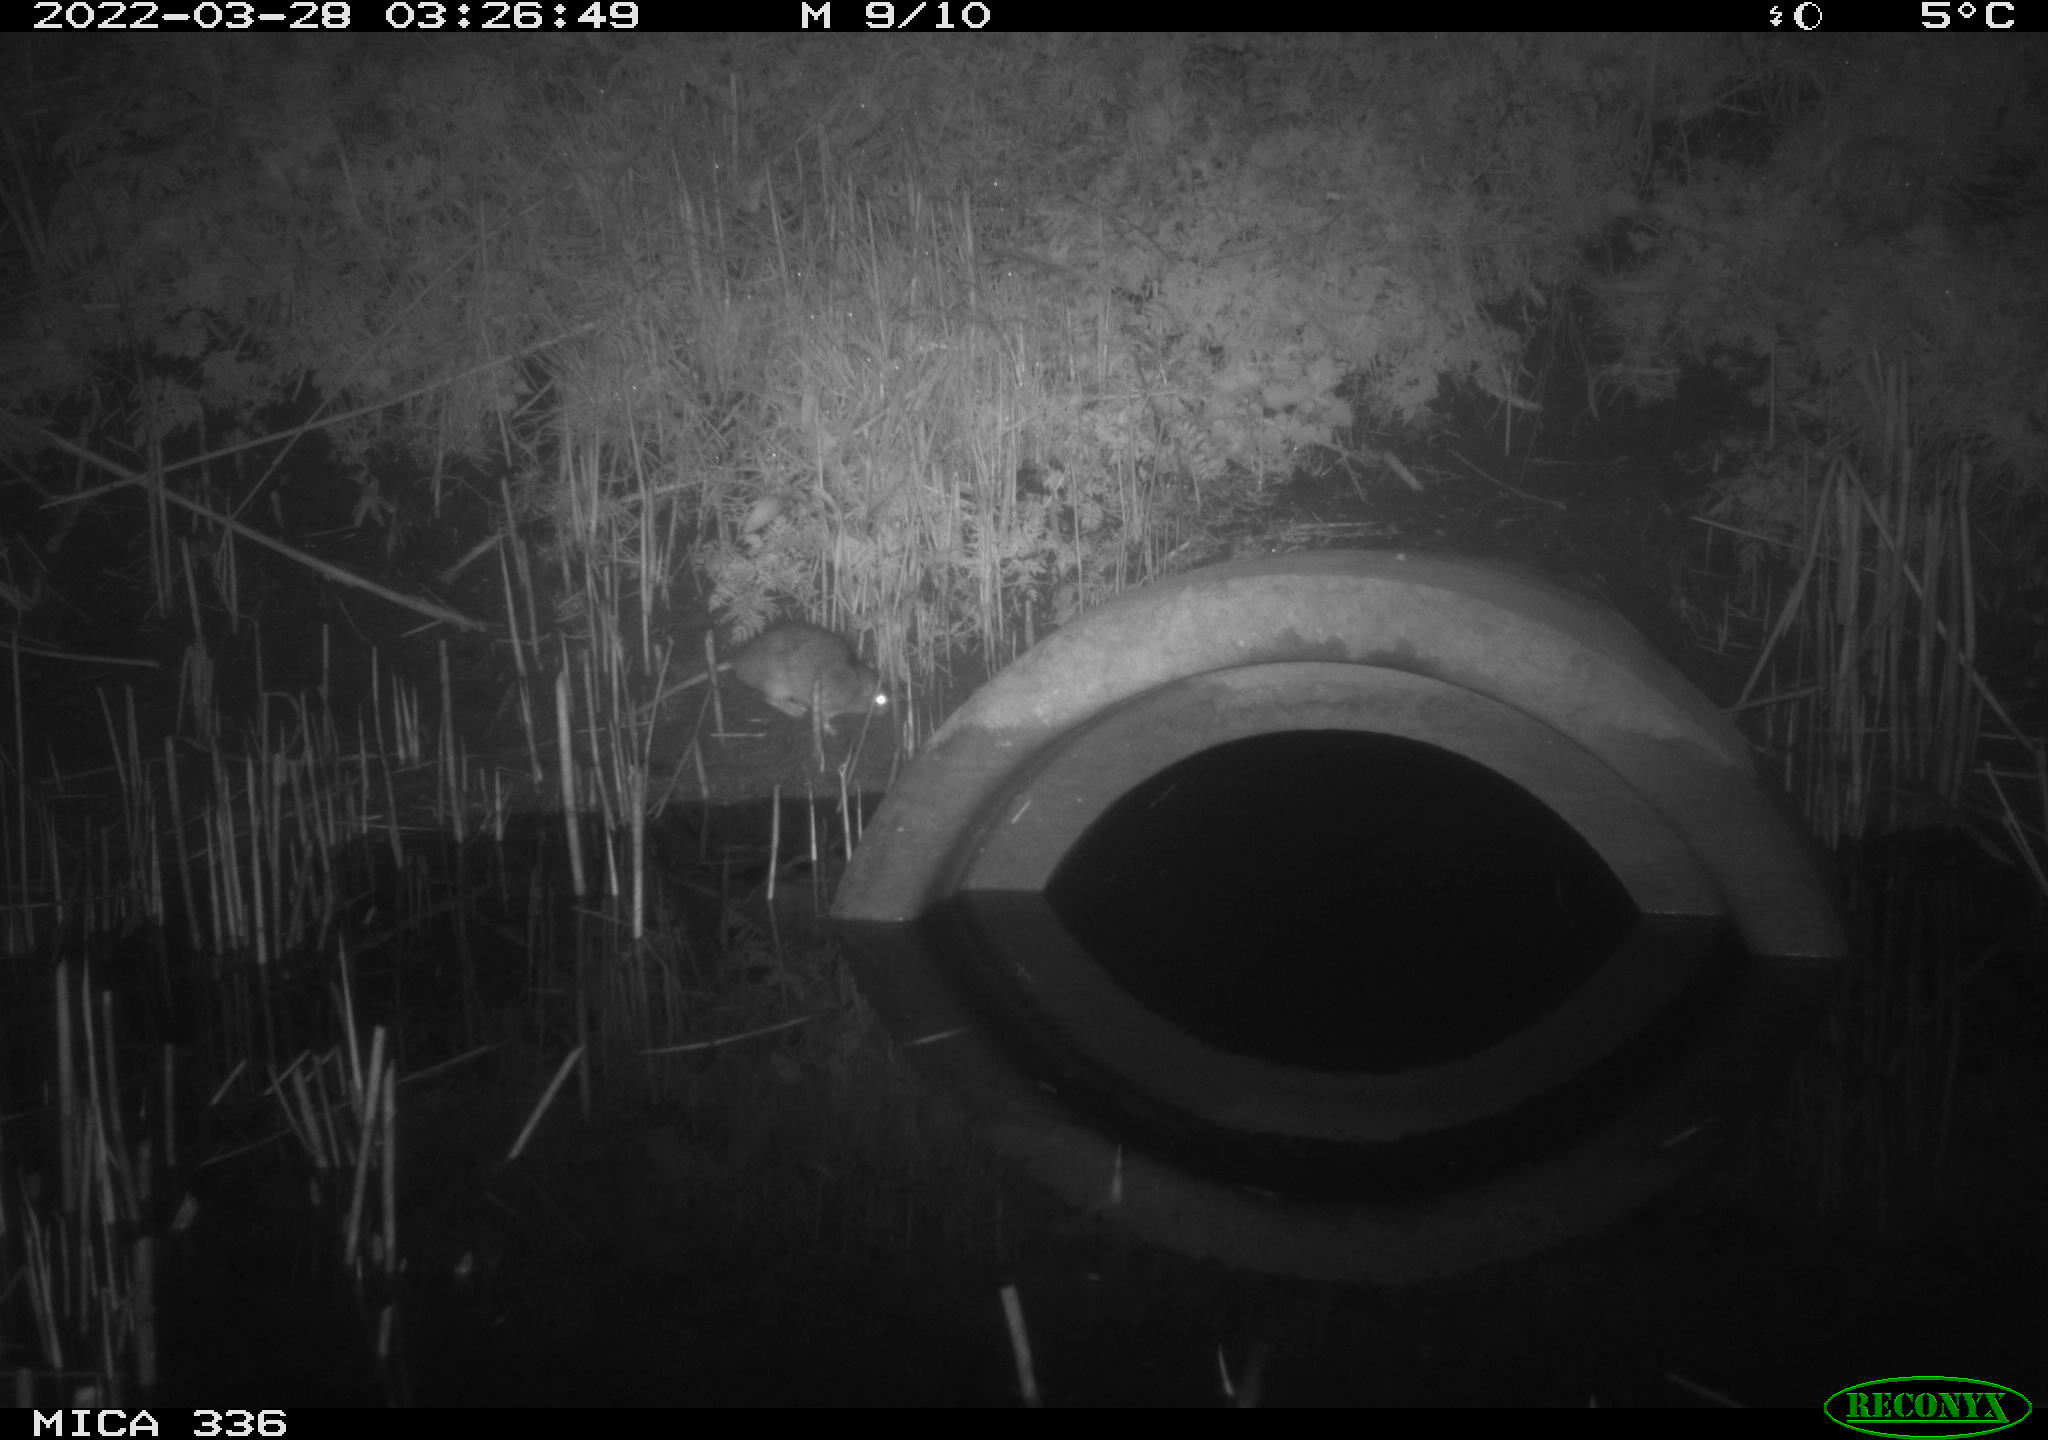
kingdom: Animalia
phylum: Chordata
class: Mammalia
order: Rodentia
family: Muridae
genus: Rattus
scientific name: Rattus norvegicus
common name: Brown rat
